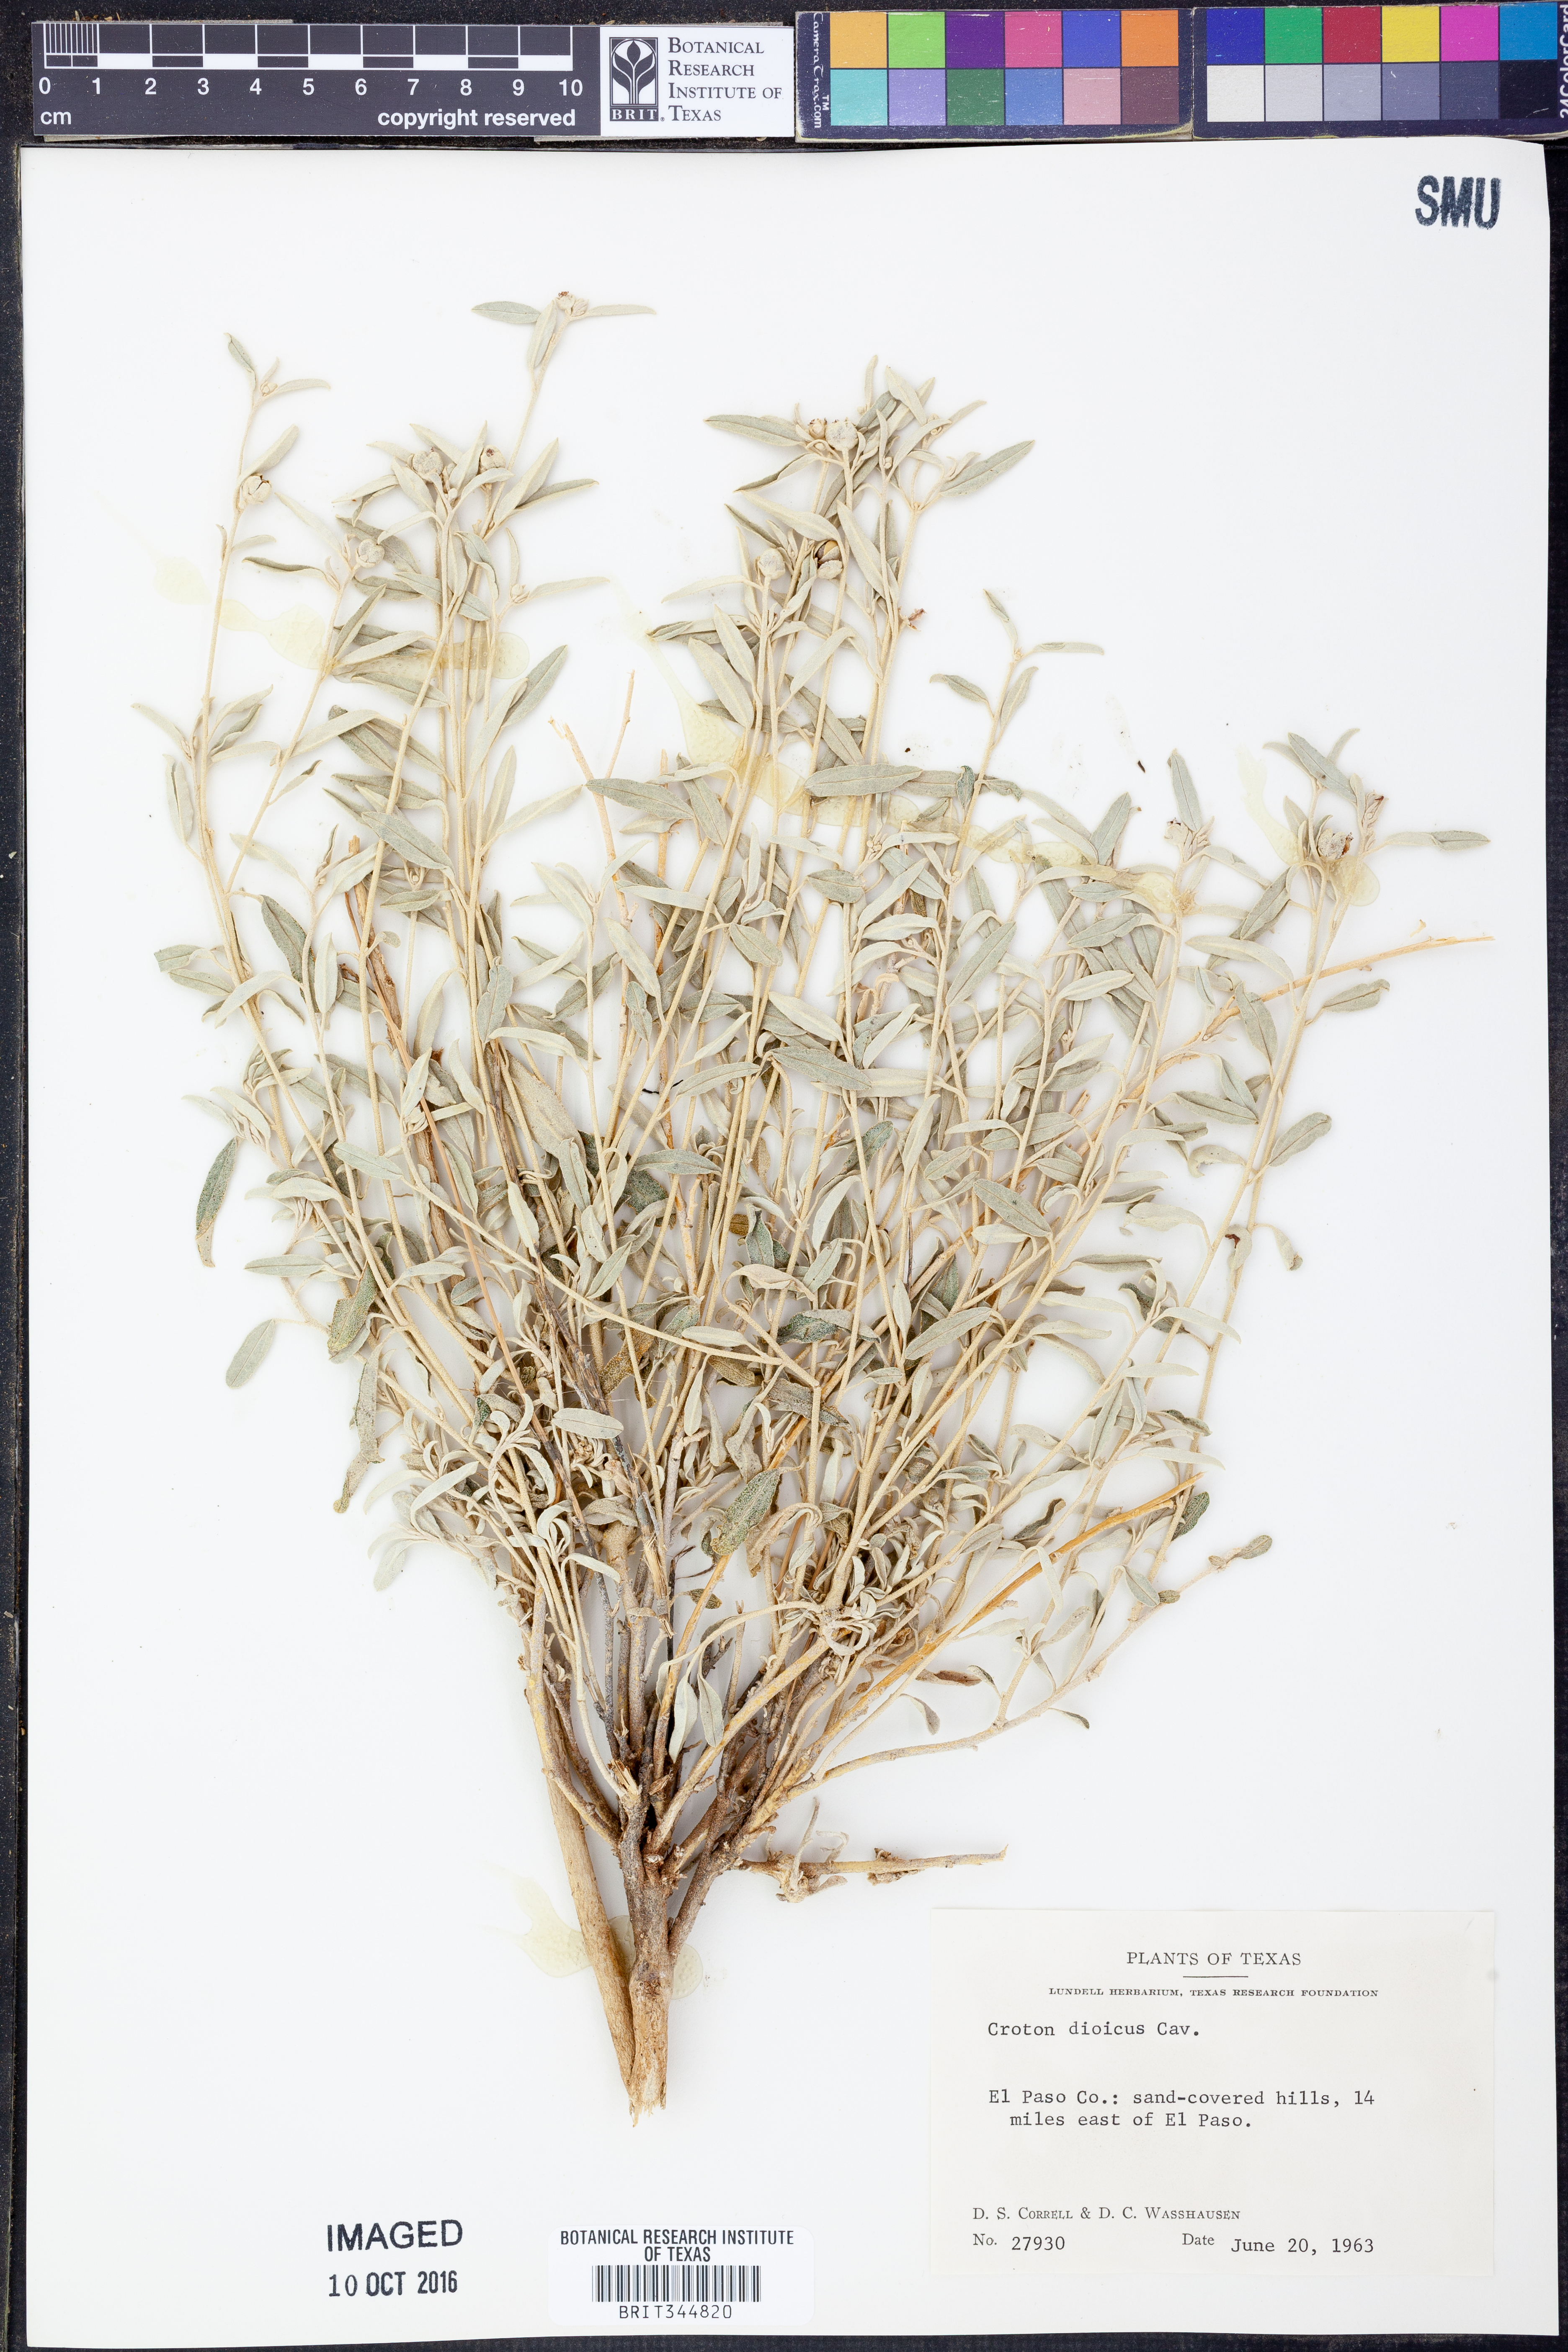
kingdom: Plantae
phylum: Tracheophyta
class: Magnoliopsida
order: Malpighiales
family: Euphorbiaceae
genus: Croton
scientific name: Croton dioicus
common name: Grassland croton
